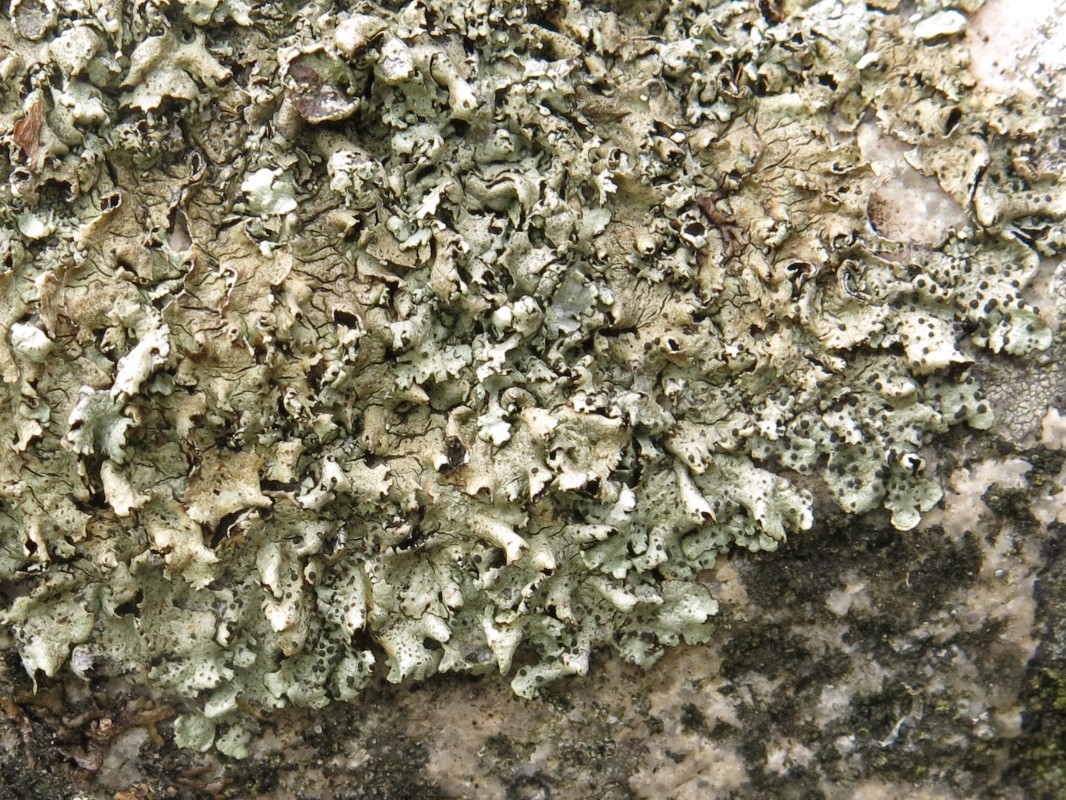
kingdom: Fungi
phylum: Ascomycota
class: Lecanoromycetes
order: Lecanorales
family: Parmeliaceae
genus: Xanthoparmelia
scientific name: Xanthoparmelia stenophylla
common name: Shingled rock shield
